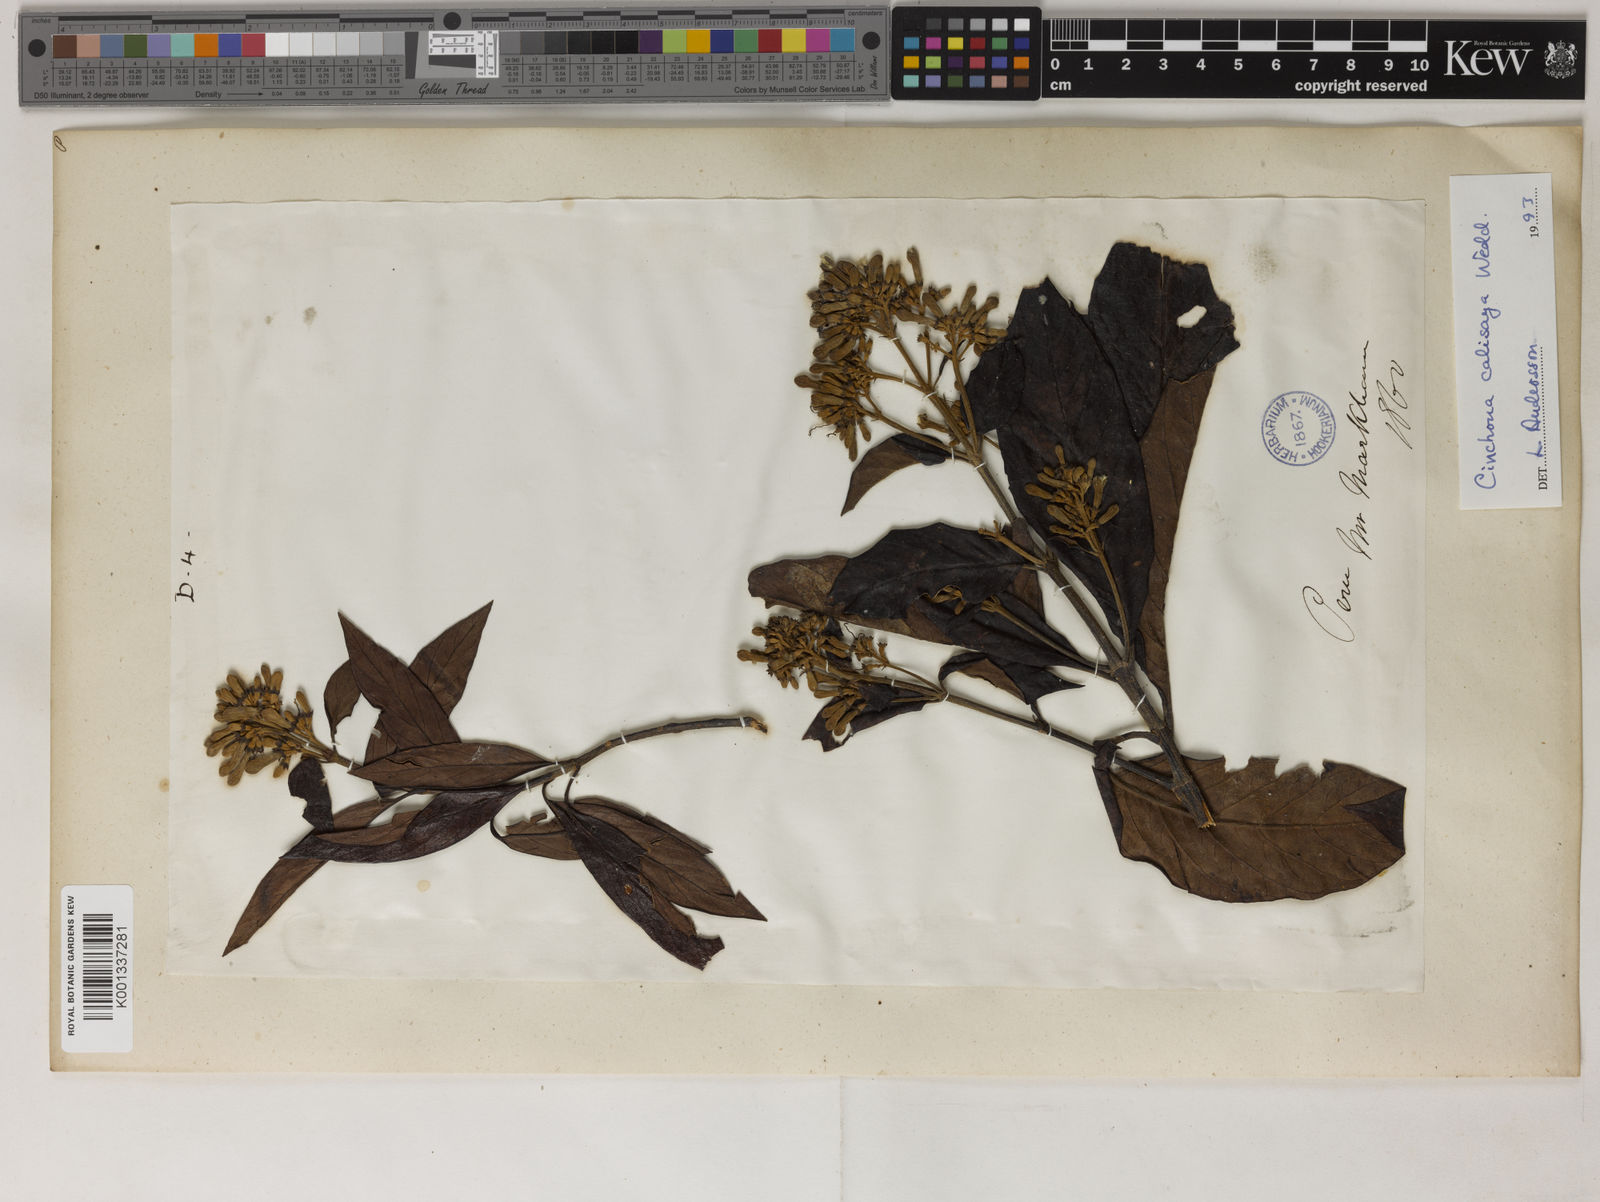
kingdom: Plantae
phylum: Tracheophyta
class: Magnoliopsida
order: Gentianales
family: Rubiaceae
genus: Cinchona
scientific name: Cinchona calisaya
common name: Ledgerbark
